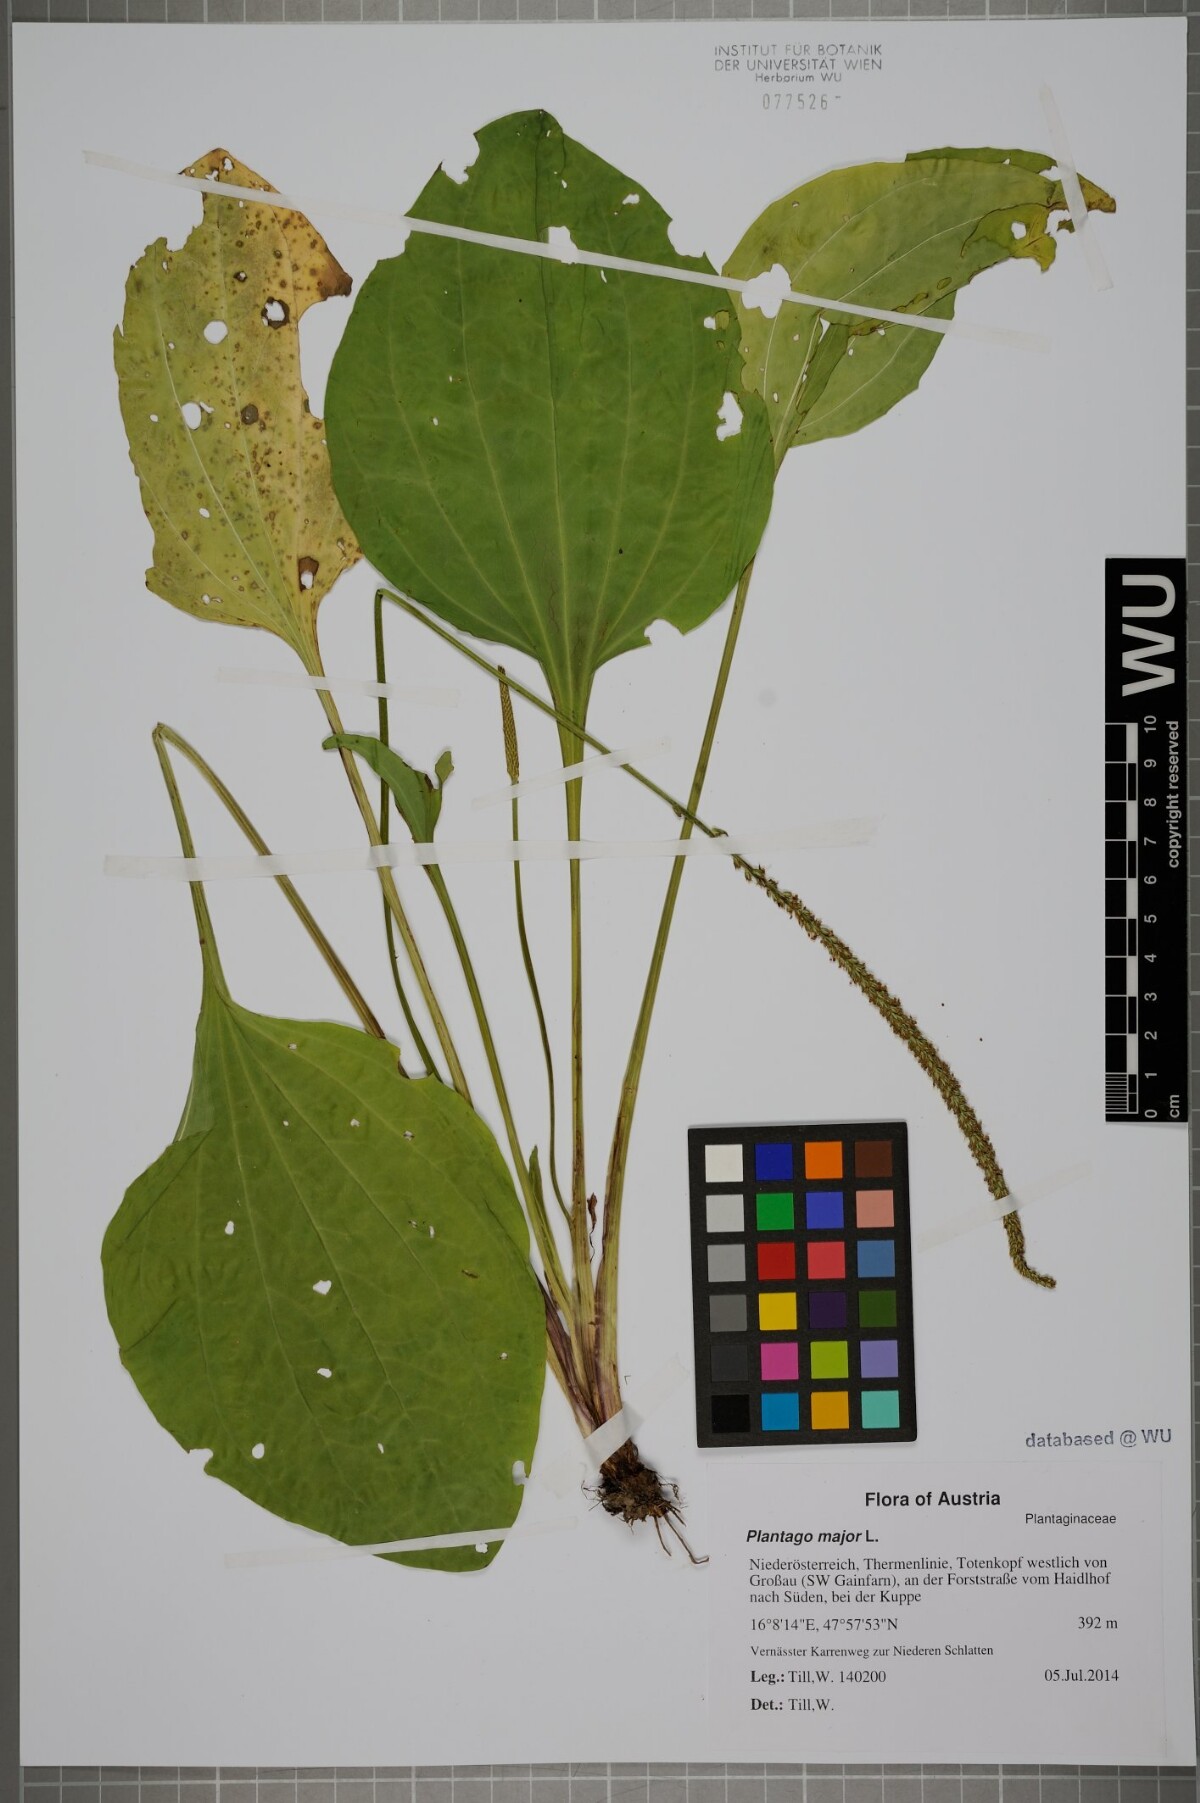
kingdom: Plantae
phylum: Tracheophyta
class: Magnoliopsida
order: Lamiales
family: Plantaginaceae
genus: Plantago
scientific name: Plantago major
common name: Common plantain
